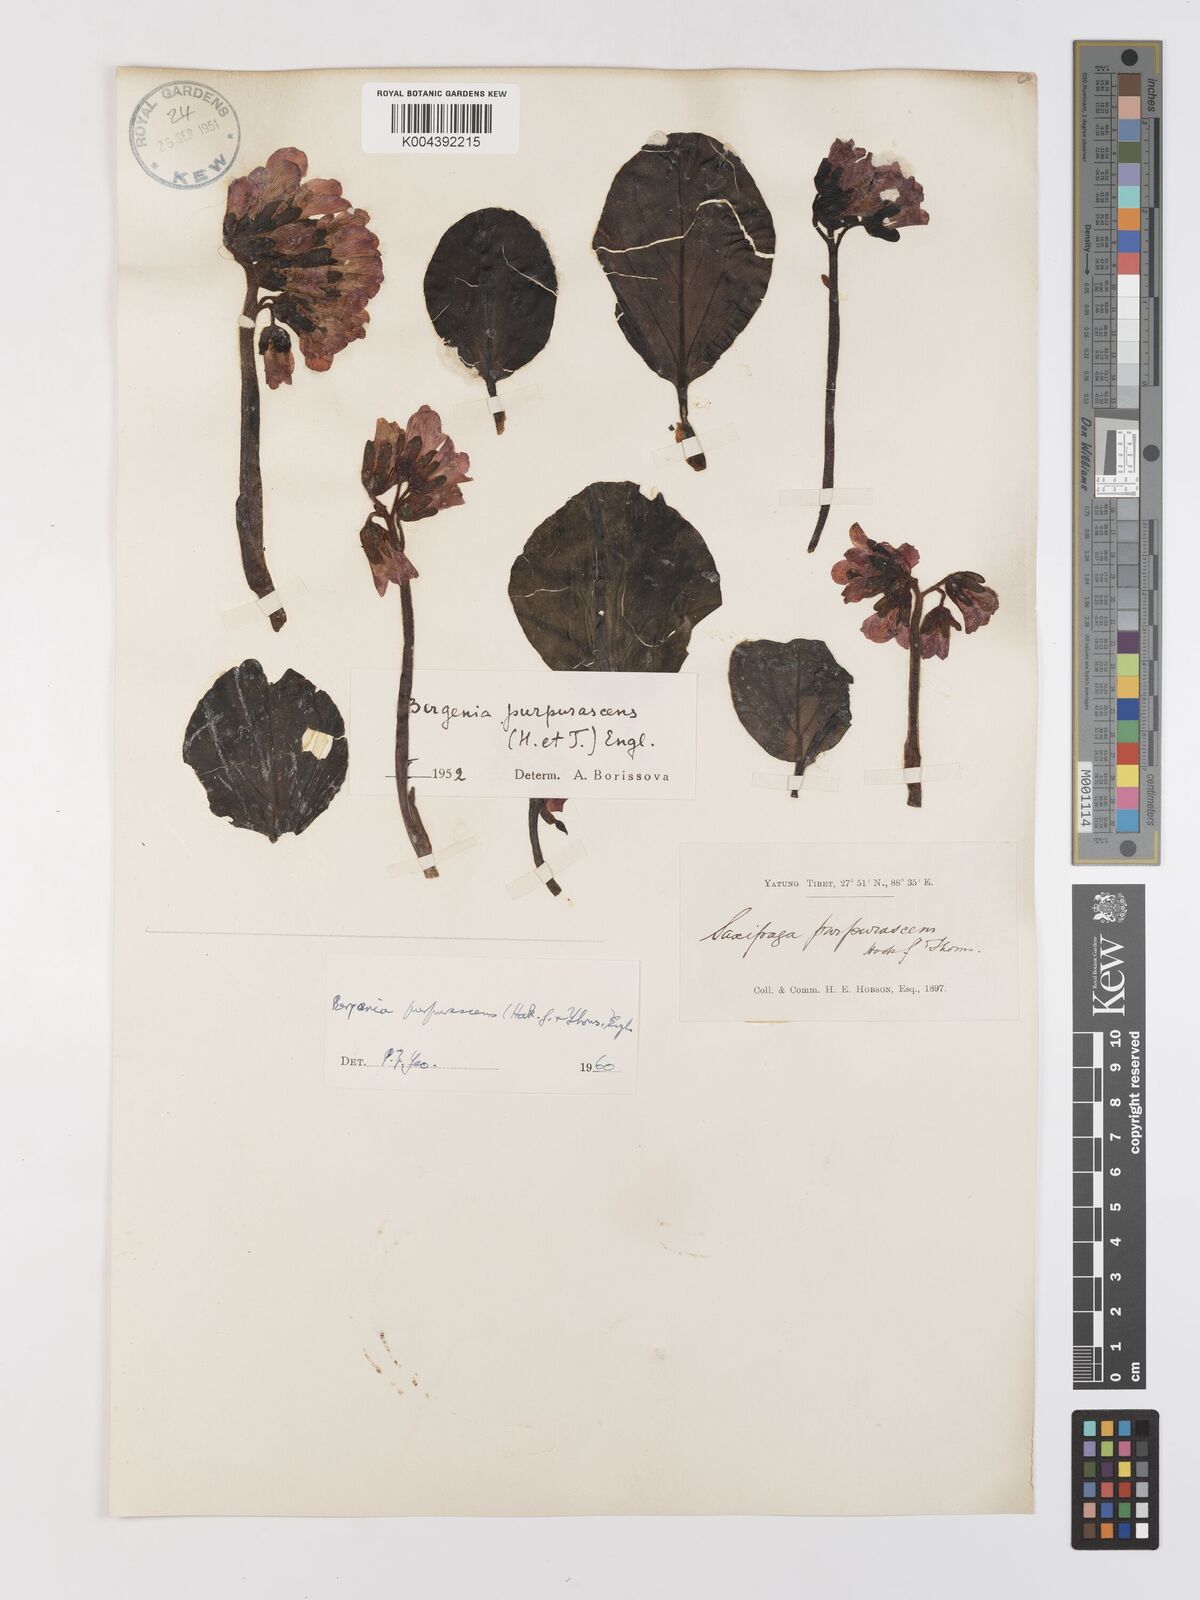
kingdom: Plantae
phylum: Tracheophyta
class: Magnoliopsida
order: Saxifragales
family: Saxifragaceae
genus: Bergenia
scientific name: Bergenia purpurascens
